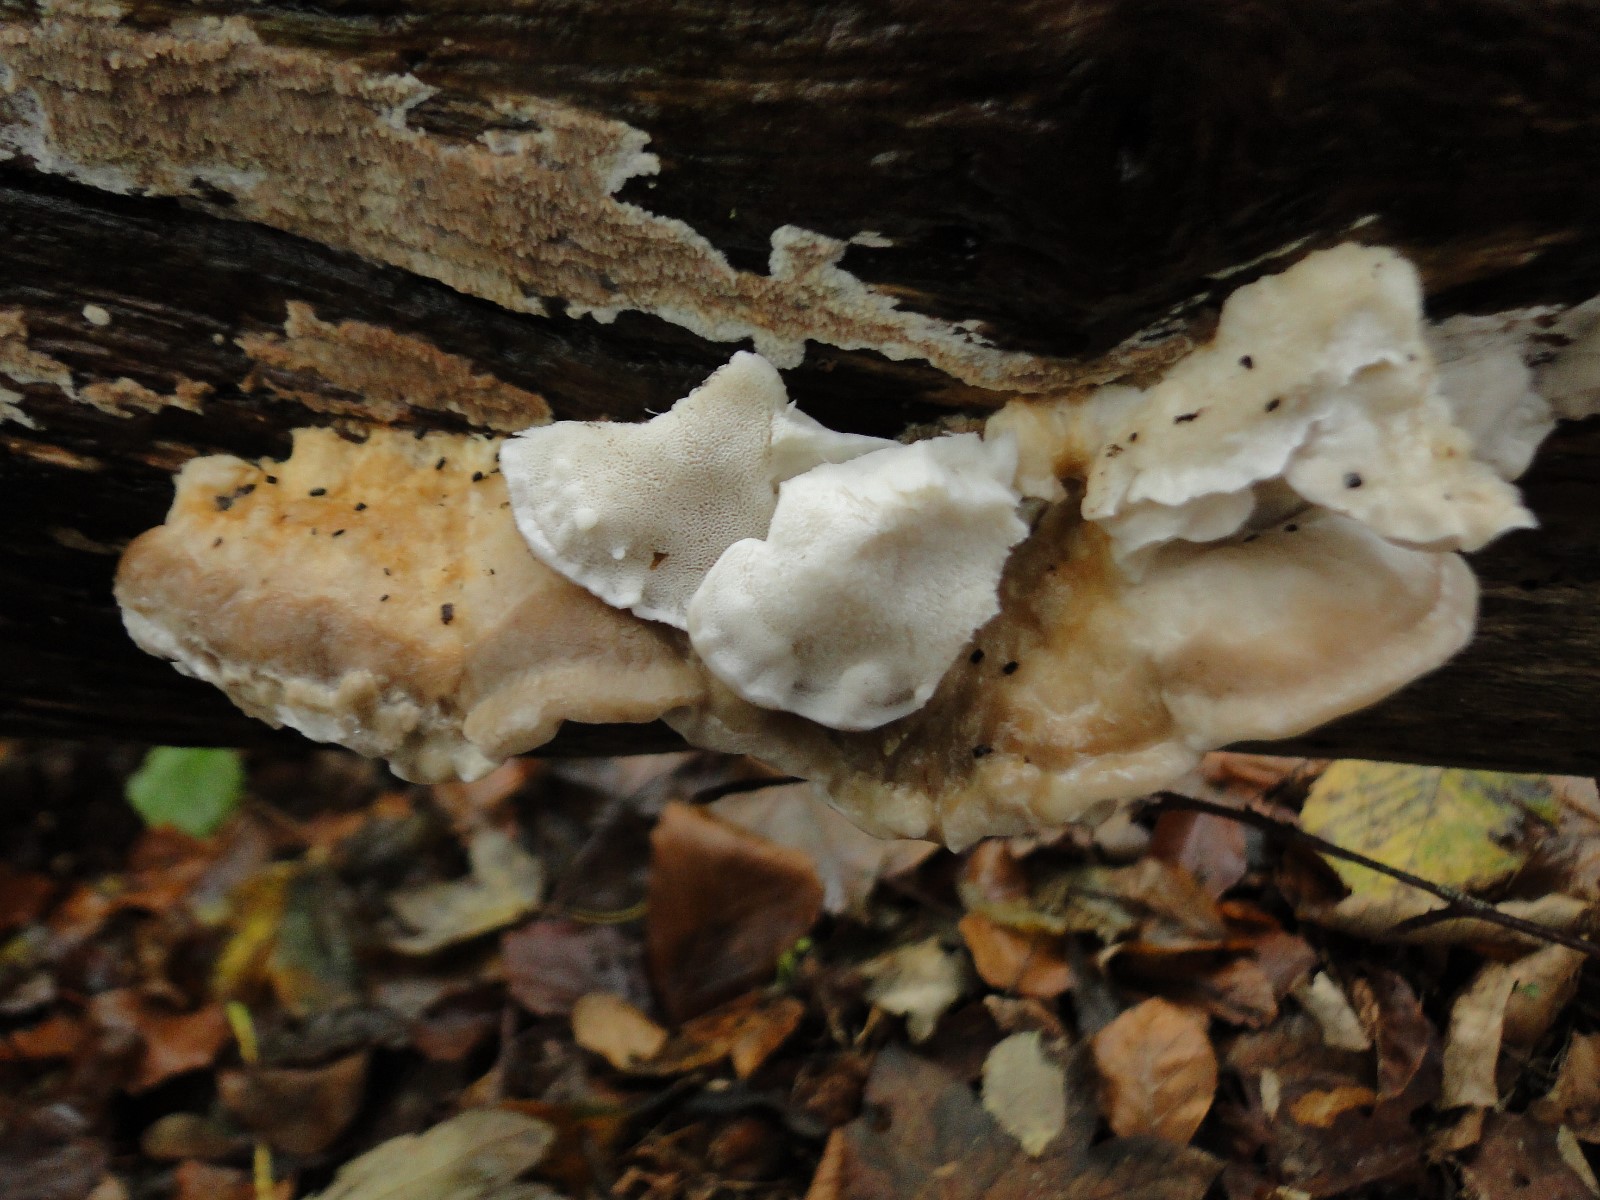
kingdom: Fungi
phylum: Basidiomycota
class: Agaricomycetes
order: Polyporales
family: Incrustoporiaceae
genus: Tyromyces
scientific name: Tyromyces chioneus
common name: stor blødporesvamp
